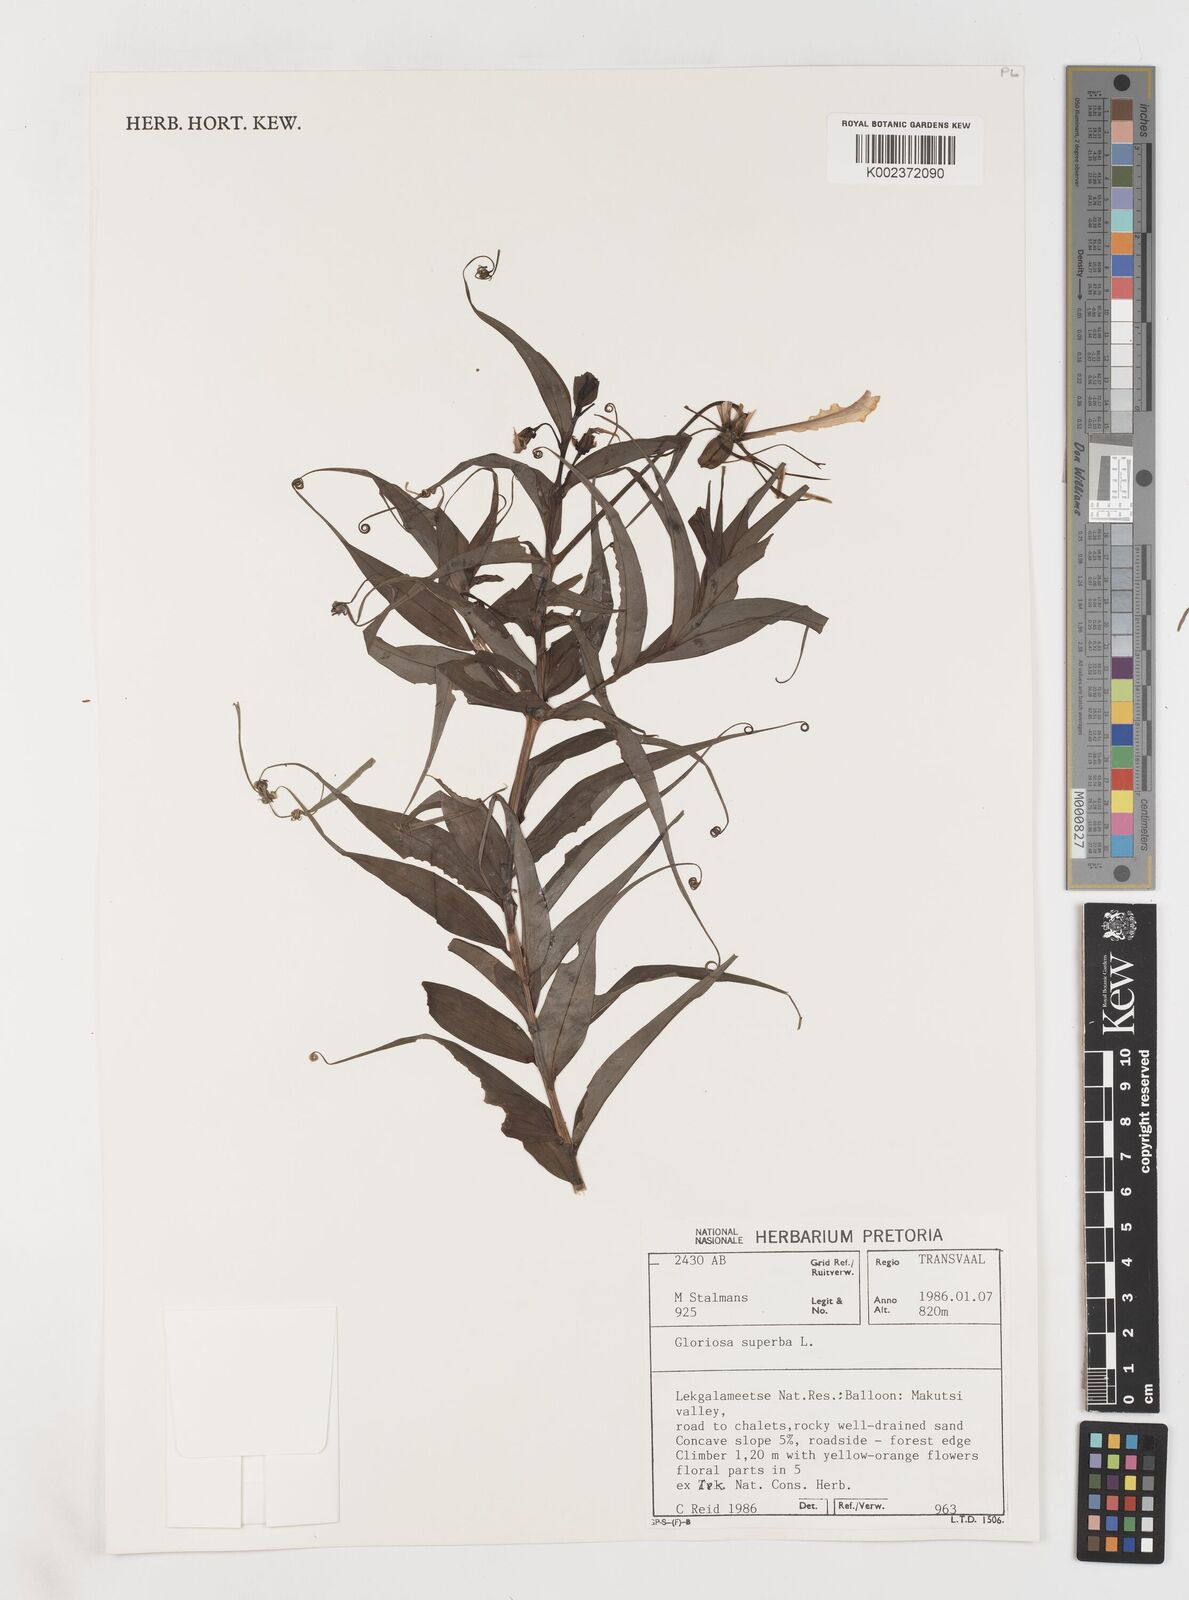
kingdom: Plantae
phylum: Tracheophyta
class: Liliopsida
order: Liliales
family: Colchicaceae
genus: Gloriosa
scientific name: Gloriosa superba
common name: Flame lily
